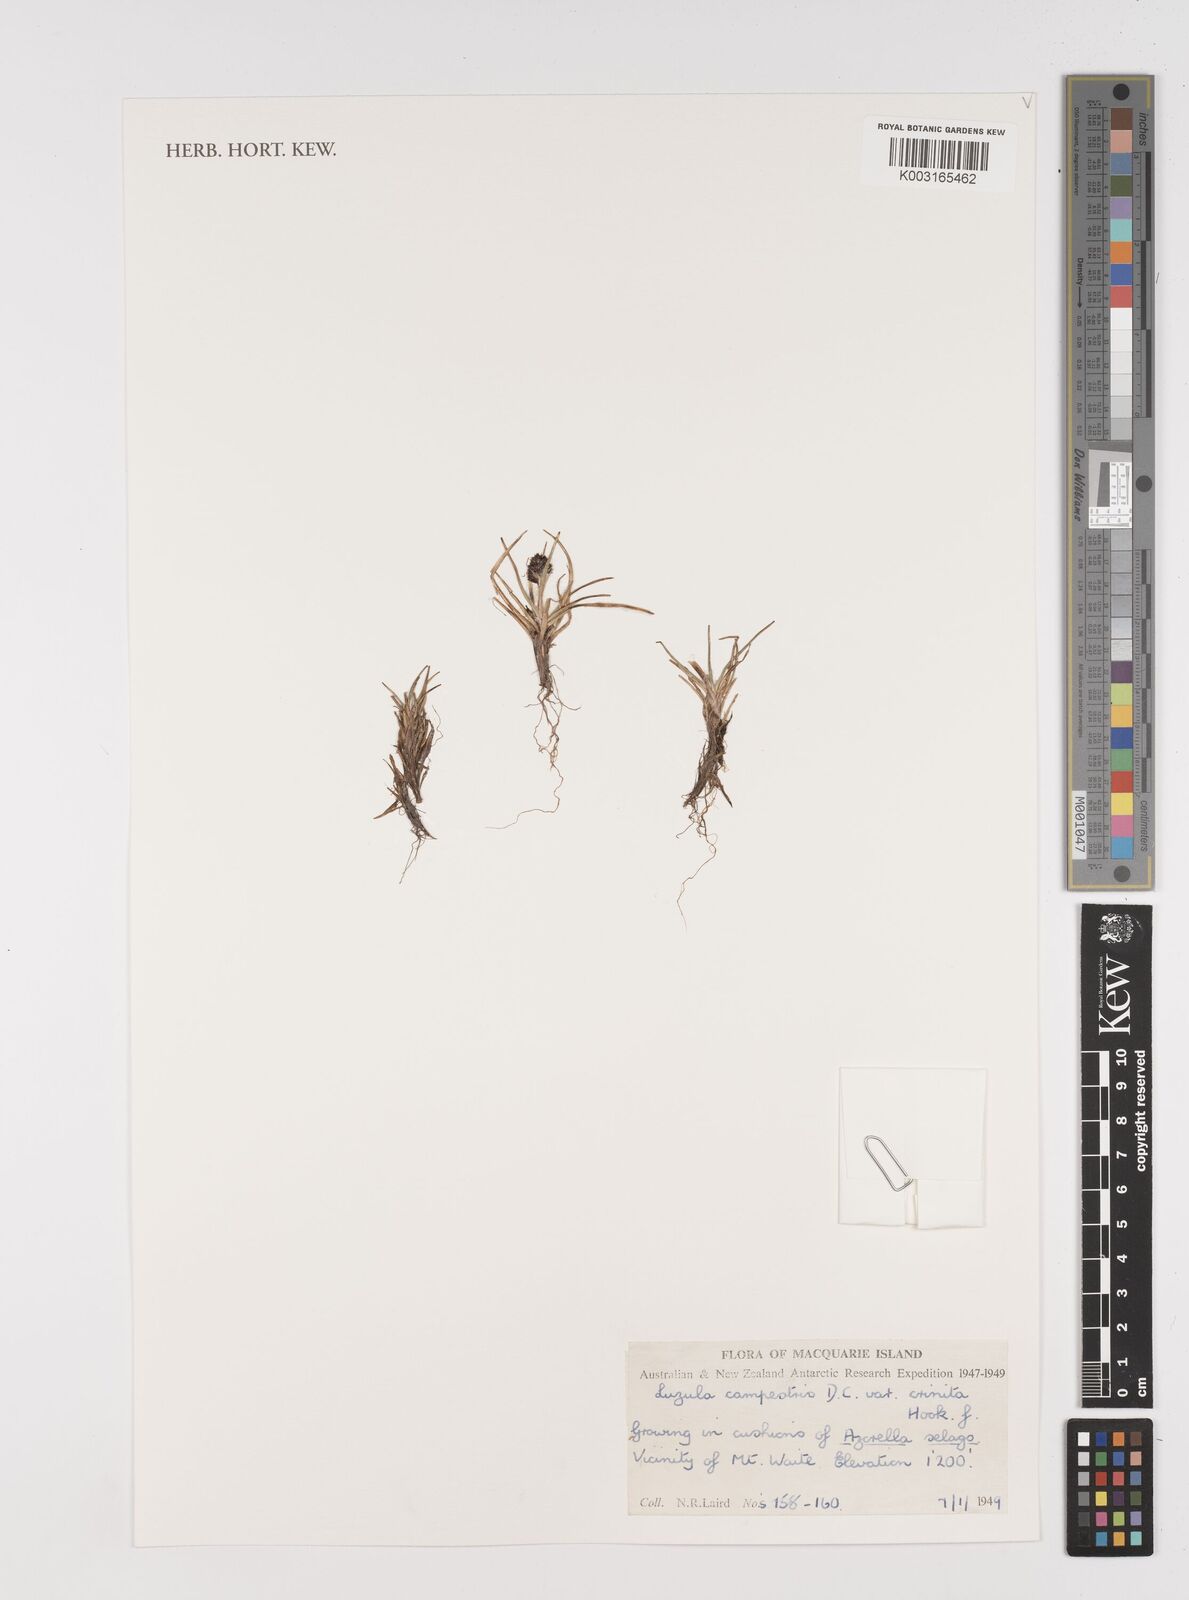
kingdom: Plantae
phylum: Tracheophyta
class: Liliopsida
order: Poales
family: Juncaceae
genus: Luzula
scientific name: Luzula crinita
